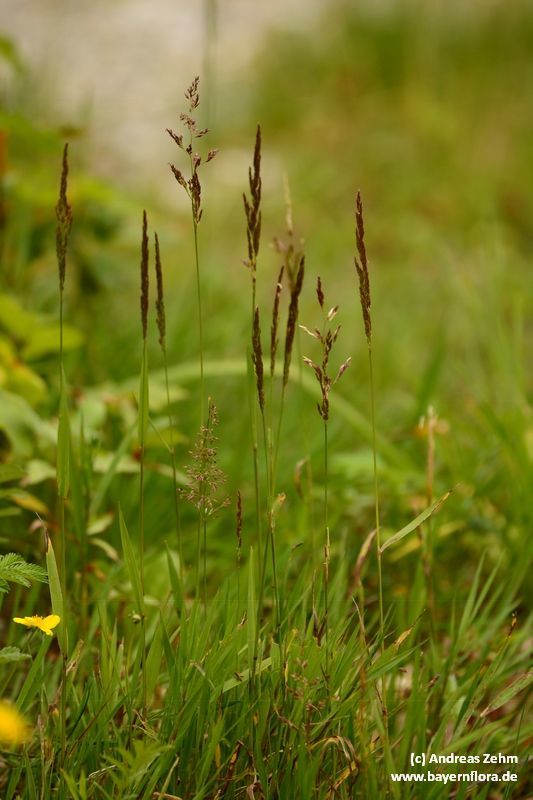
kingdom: Plantae
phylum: Tracheophyta
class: Liliopsida
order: Poales
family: Poaceae
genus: Agrostis
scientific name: Agrostis stolonifera
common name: Creeping bentgrass
